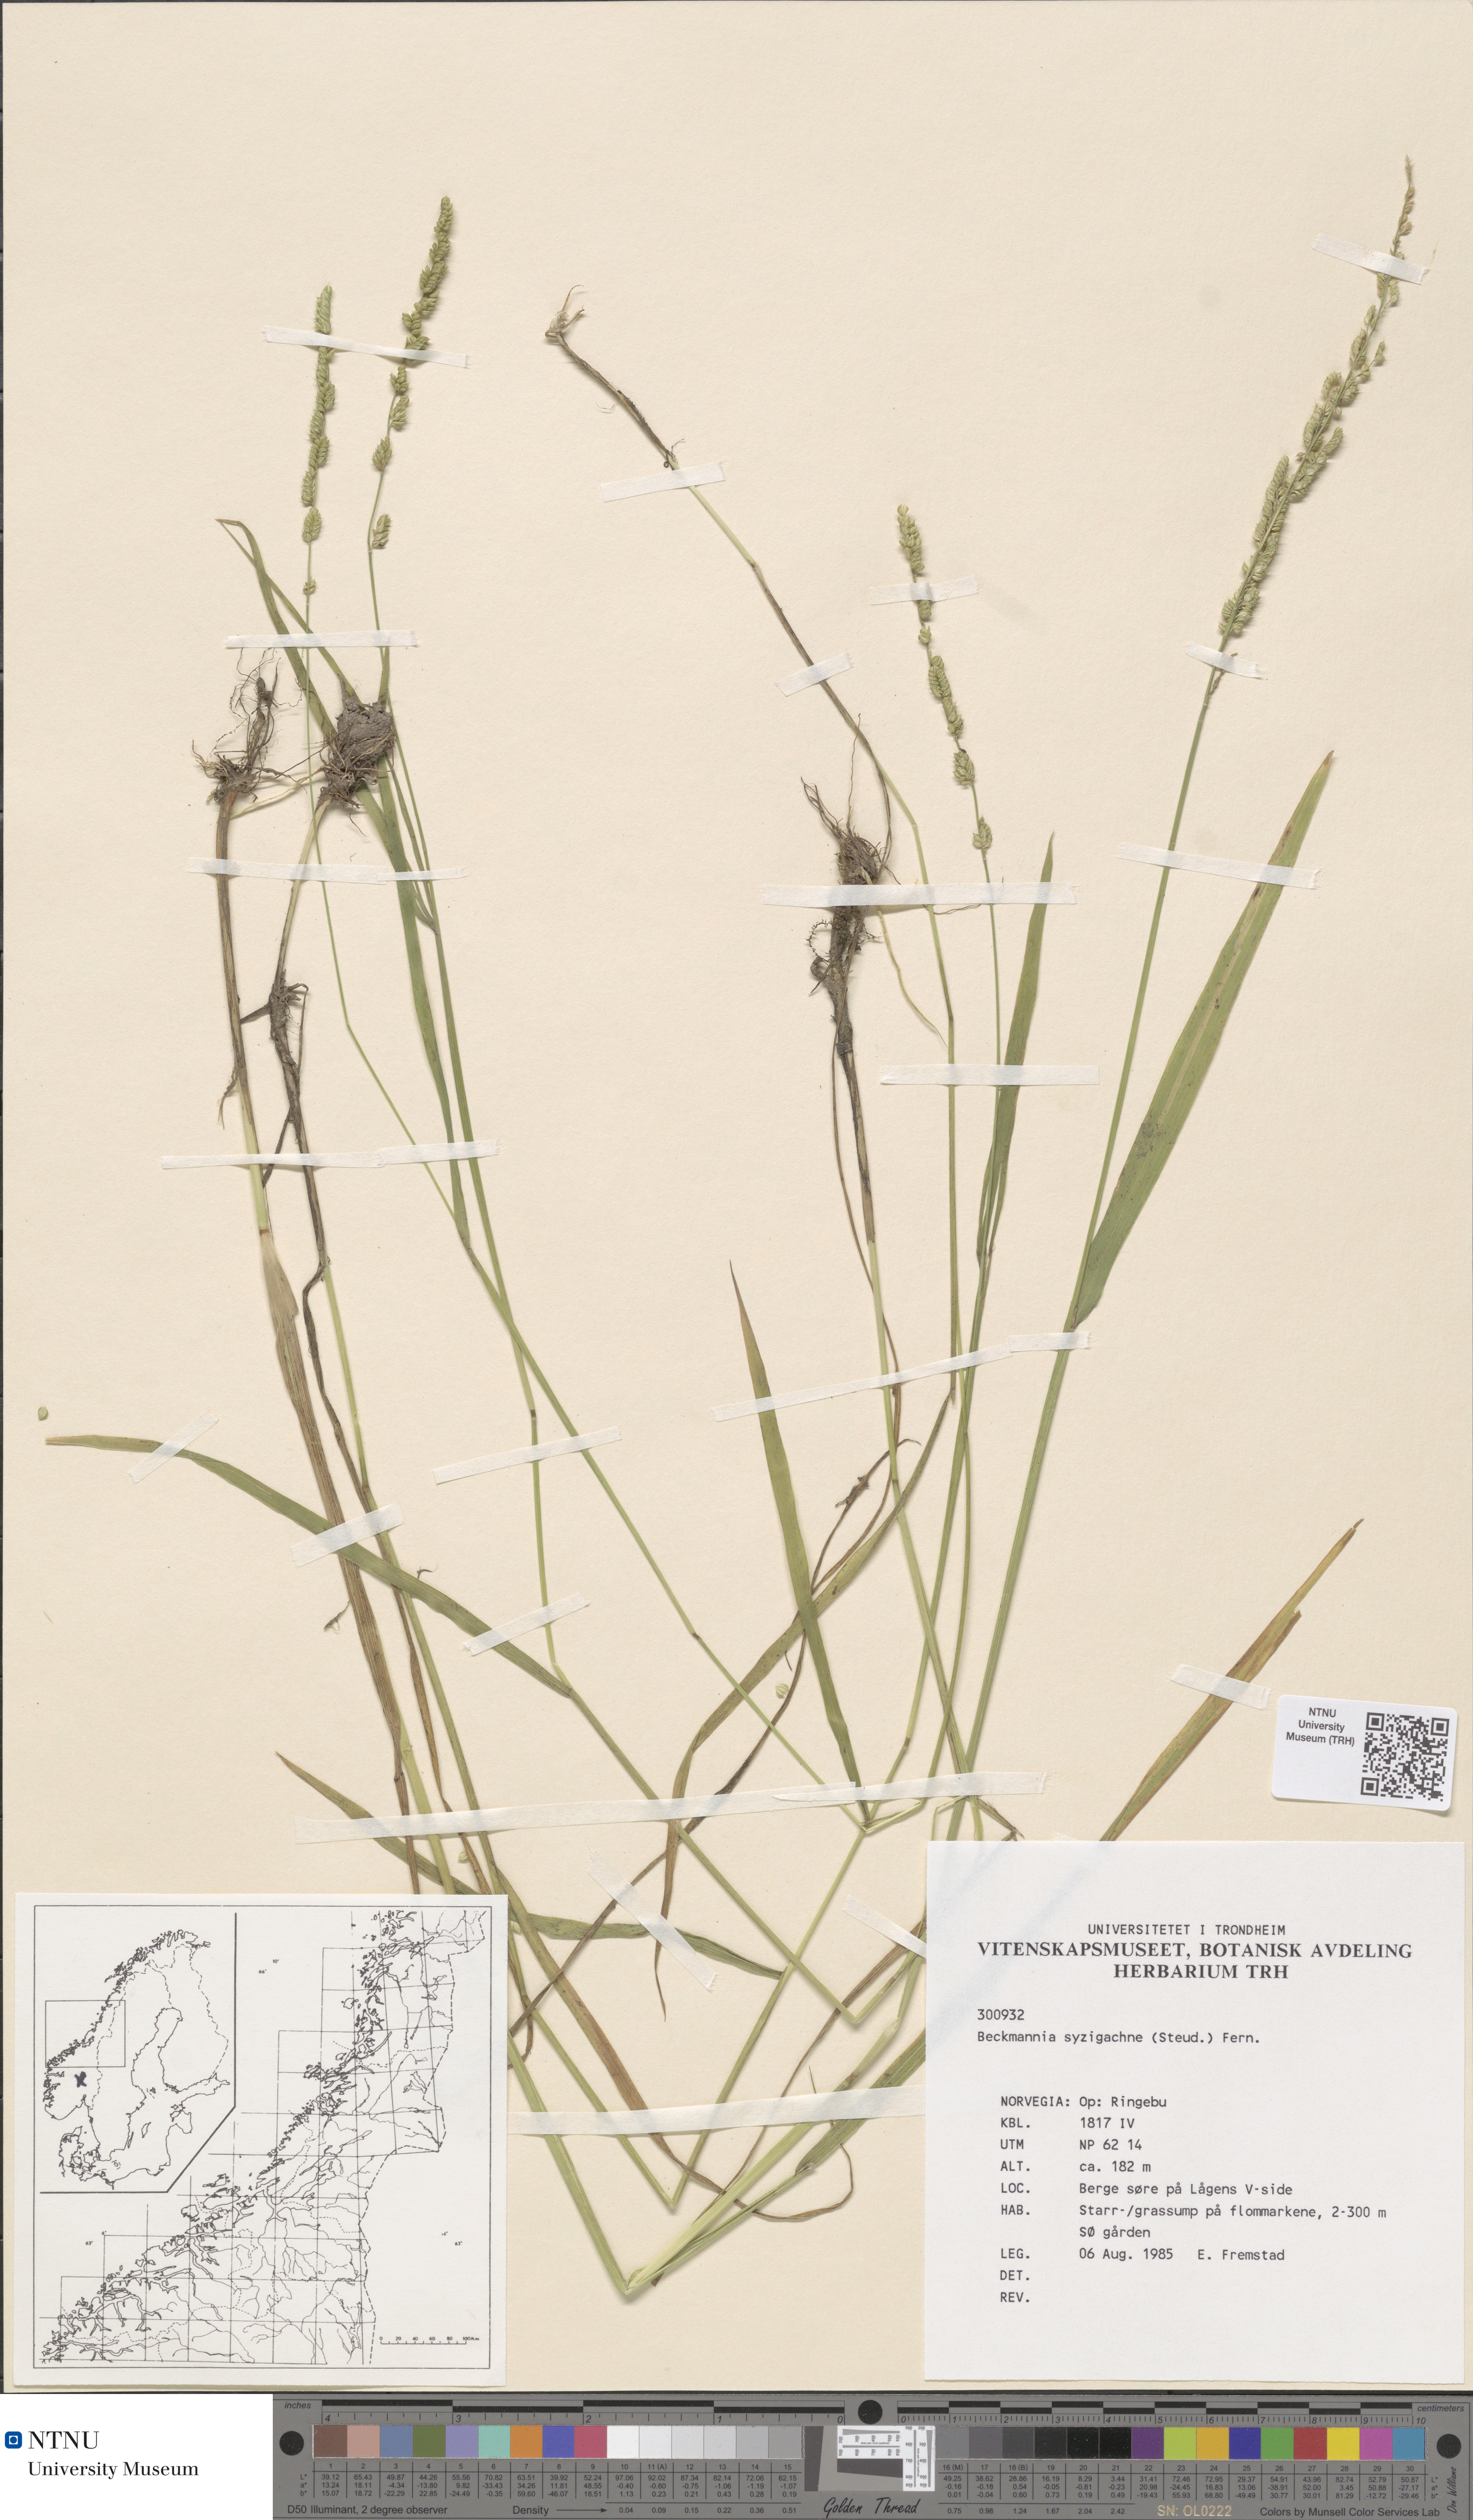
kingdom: Plantae
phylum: Tracheophyta
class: Liliopsida
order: Poales
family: Poaceae
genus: Beckmannia
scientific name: Beckmannia syzigachne
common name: American slough-grass
